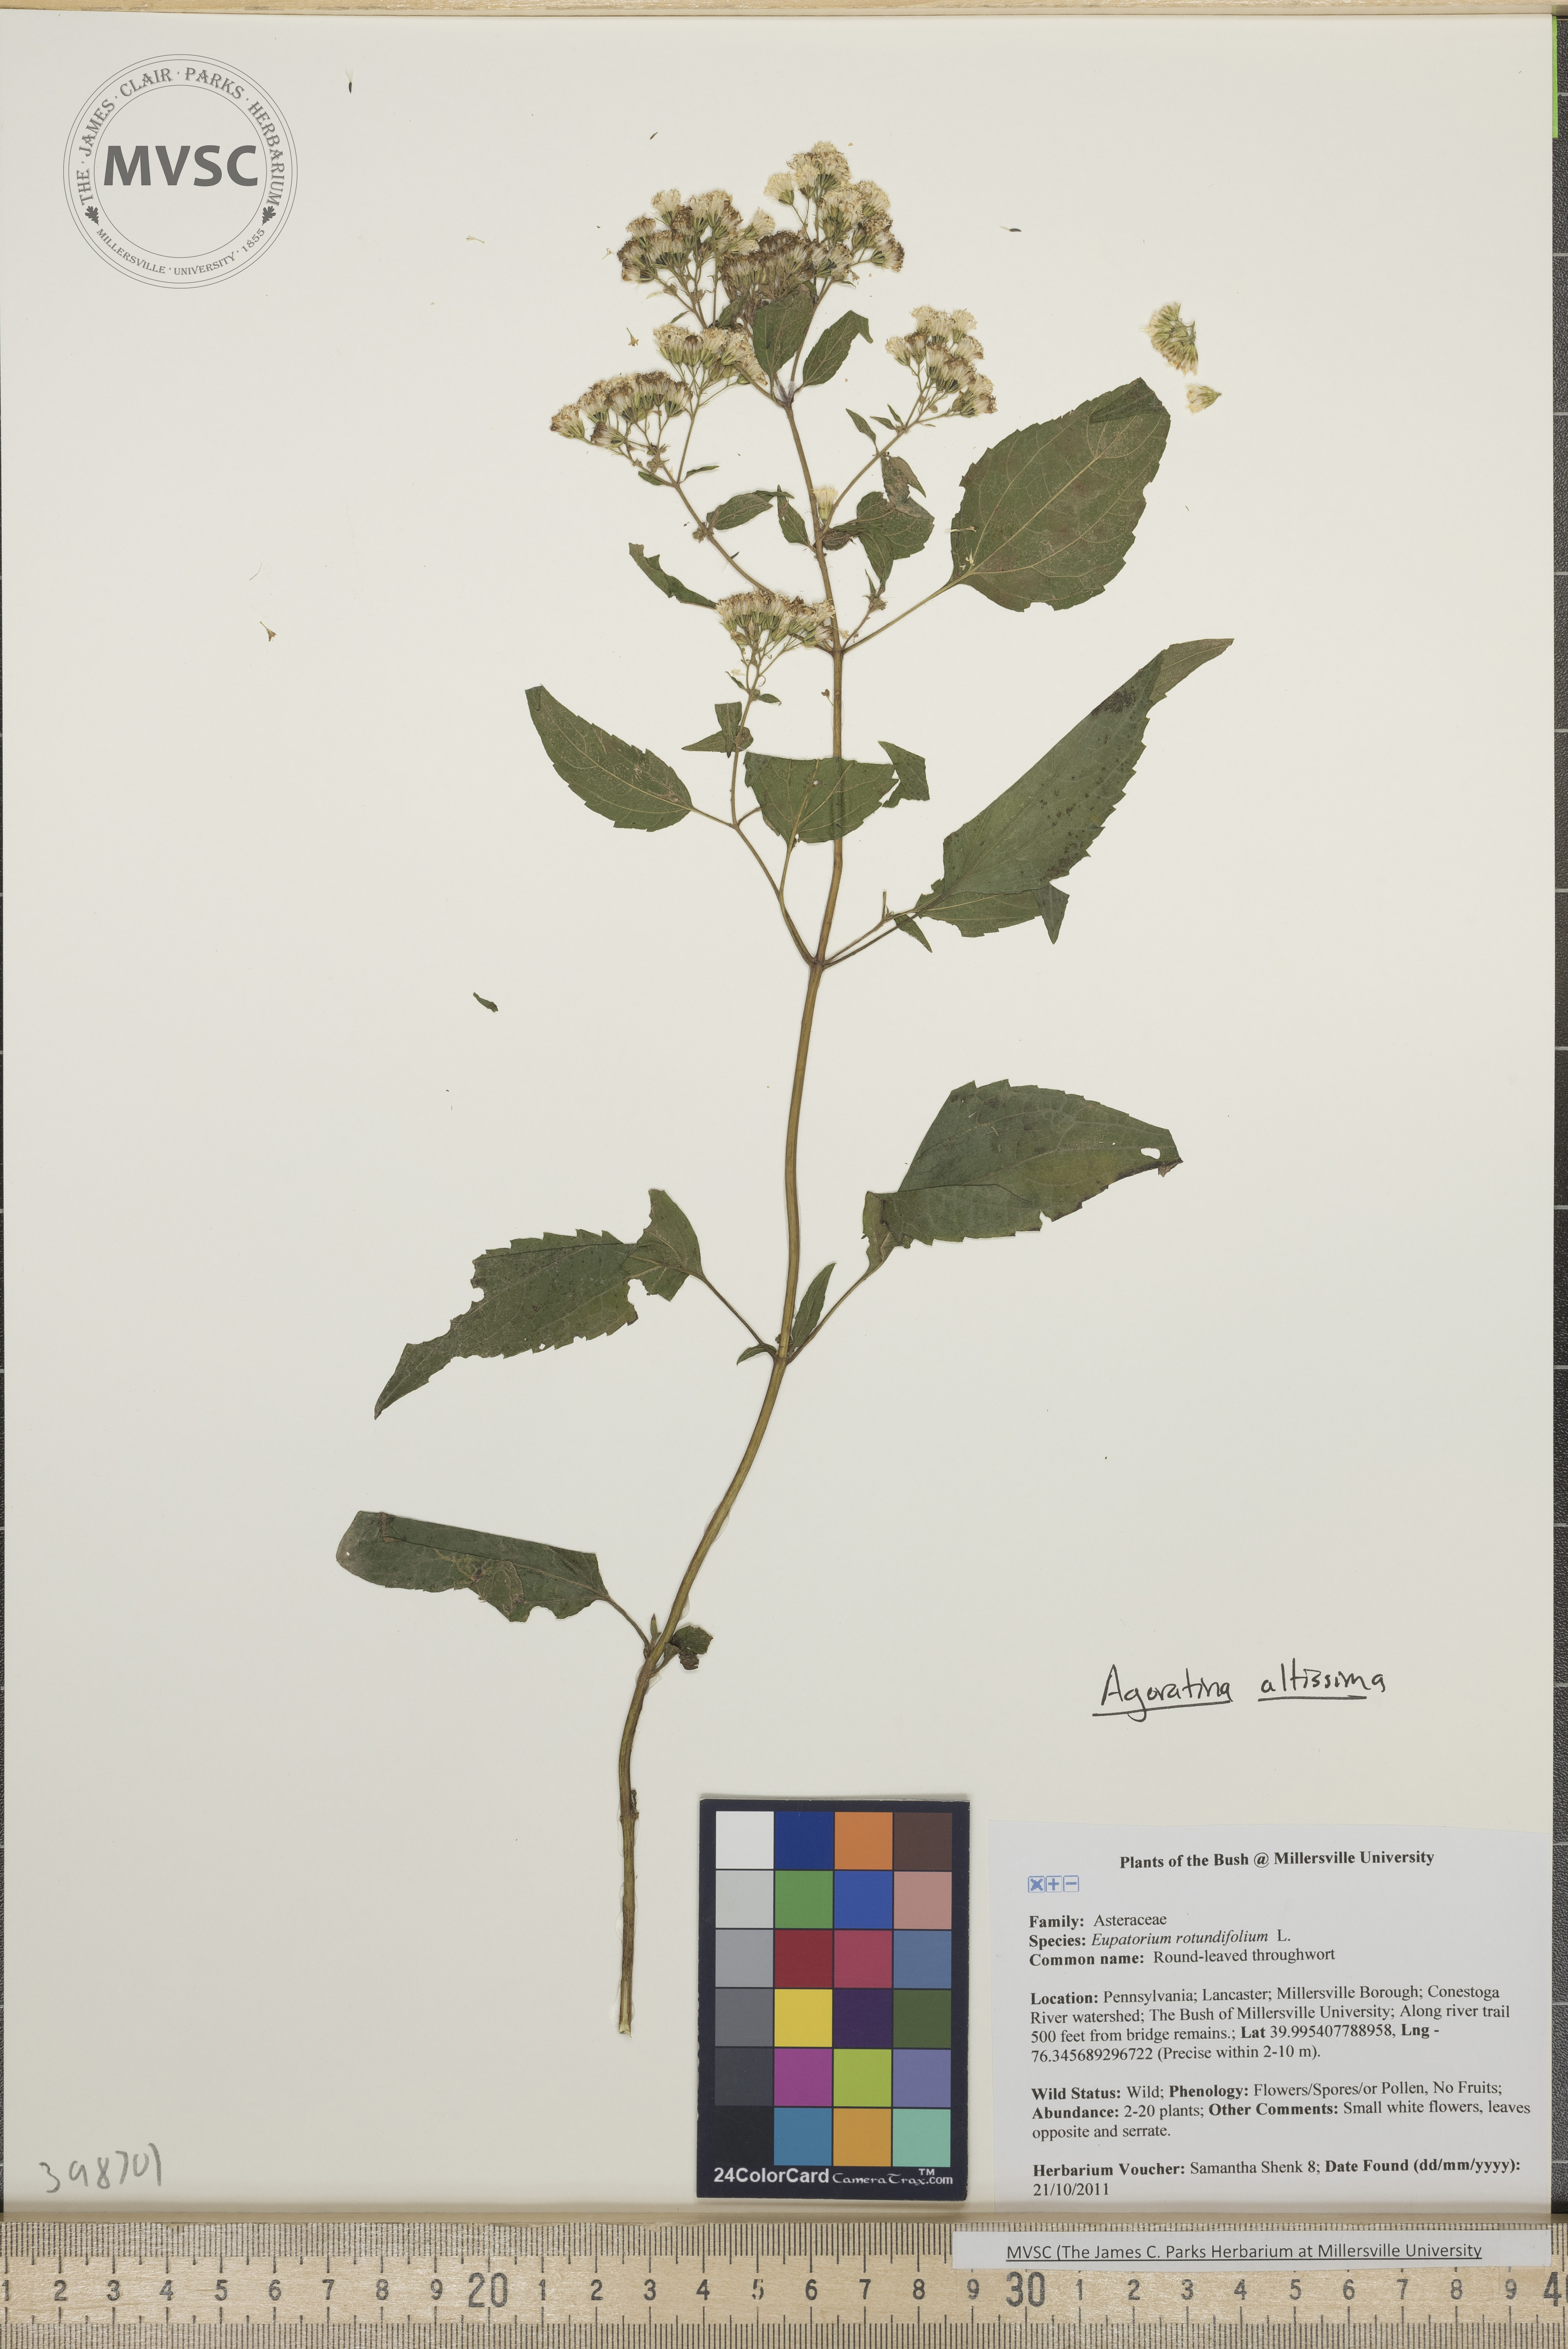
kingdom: Plantae
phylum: Tracheophyta
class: Magnoliopsida
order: Asterales
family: Asteraceae
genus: Ageratina
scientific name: Ageratina altissima
